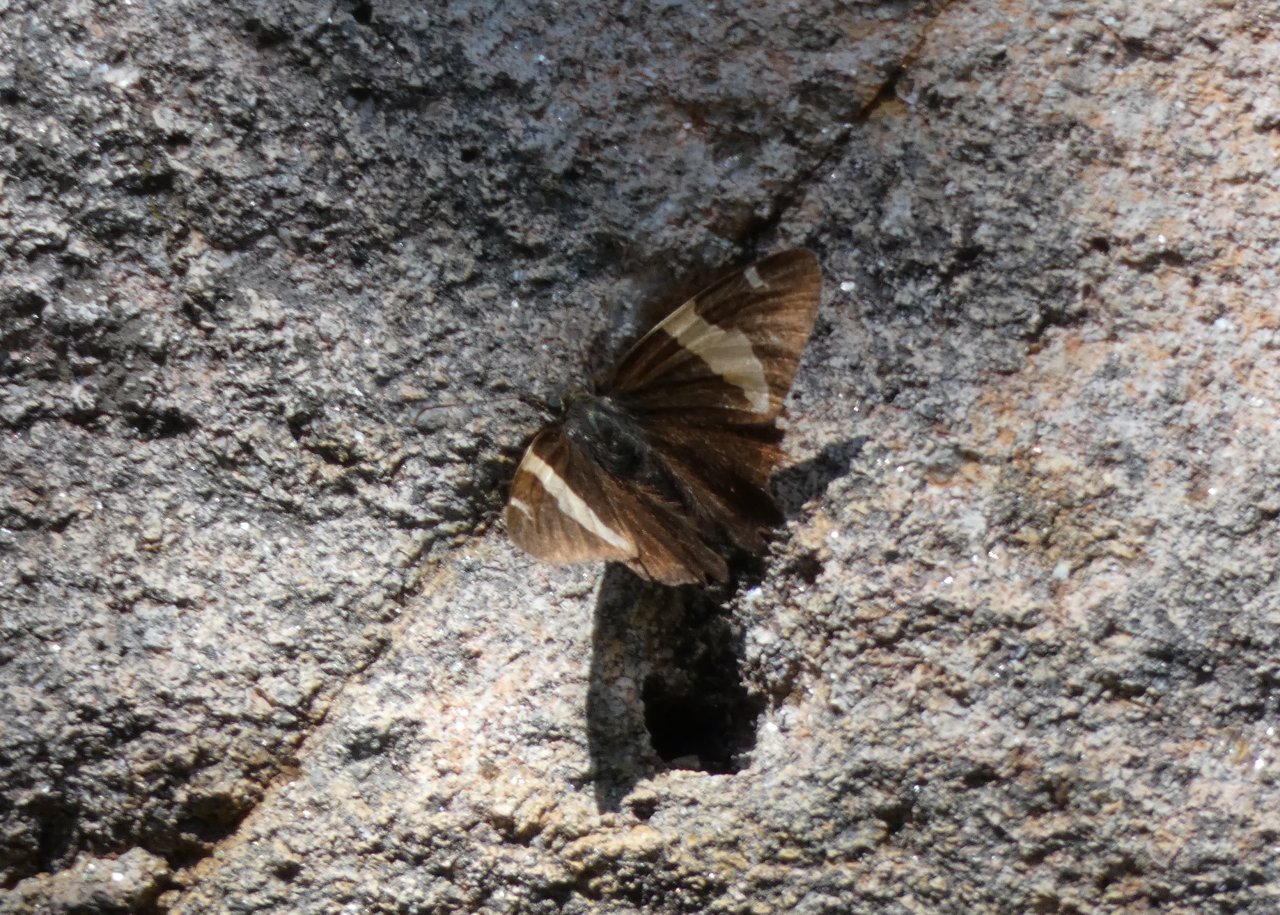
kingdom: Animalia
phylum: Arthropoda
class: Insecta
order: Lepidoptera
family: Hesperiidae
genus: Autochton
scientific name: Autochton cellus
